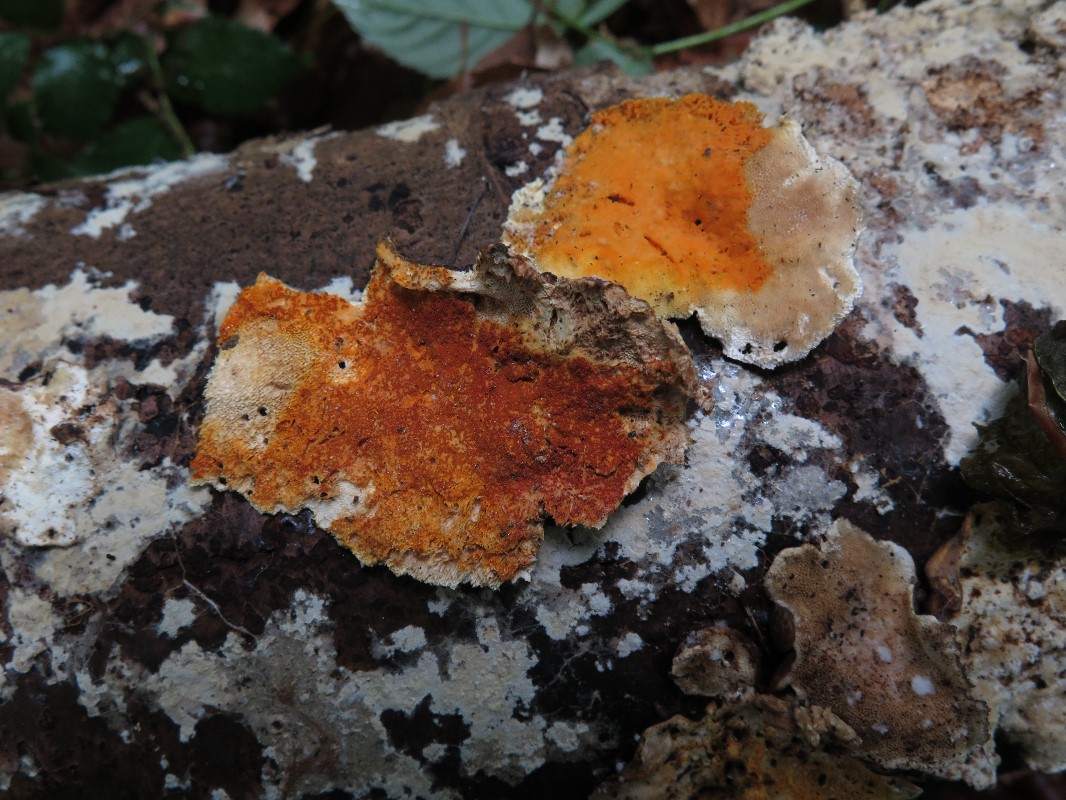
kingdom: Fungi
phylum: Ascomycota
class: Sordariomycetes
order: Hypocreales
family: Hypocreaceae
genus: Hypomyces
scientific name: Hypomyces aurantius
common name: almindelig snylteskorpe
